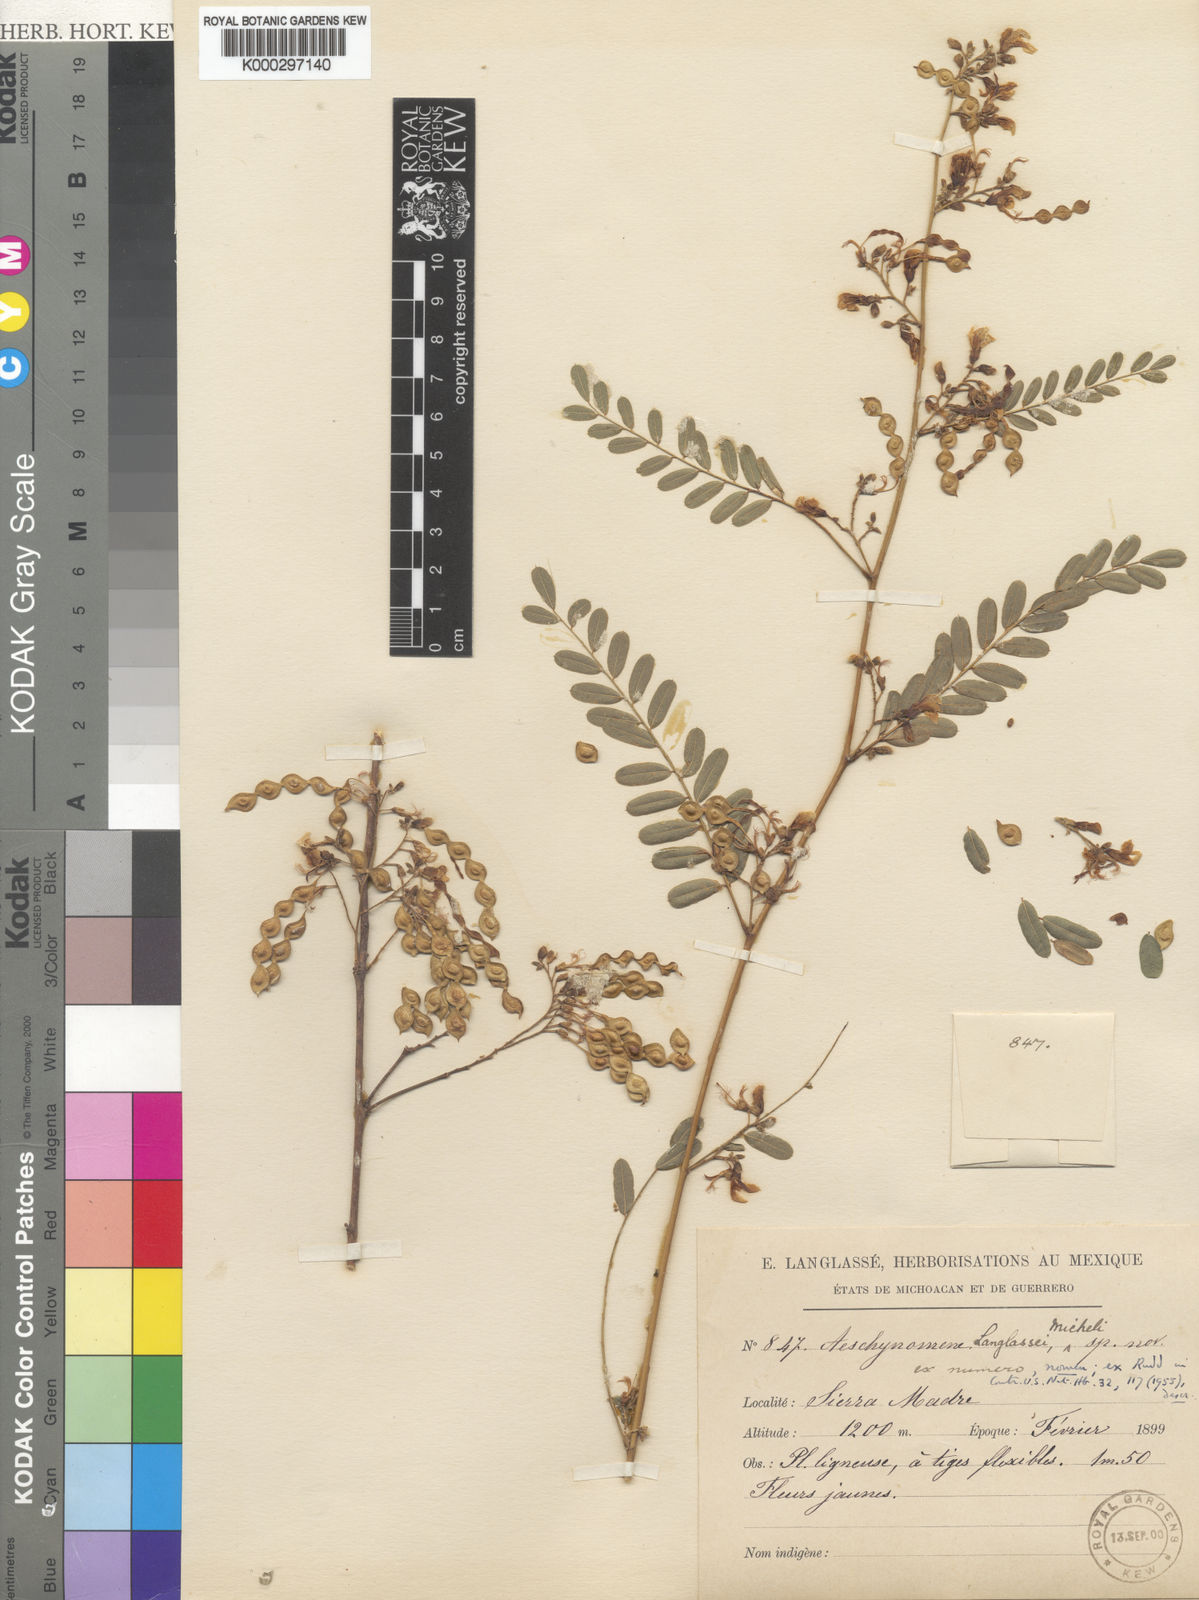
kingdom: Plantae
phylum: Tracheophyta
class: Magnoliopsida
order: Fabales
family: Fabaceae
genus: Ctenodon
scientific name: Ctenodon langlassei
